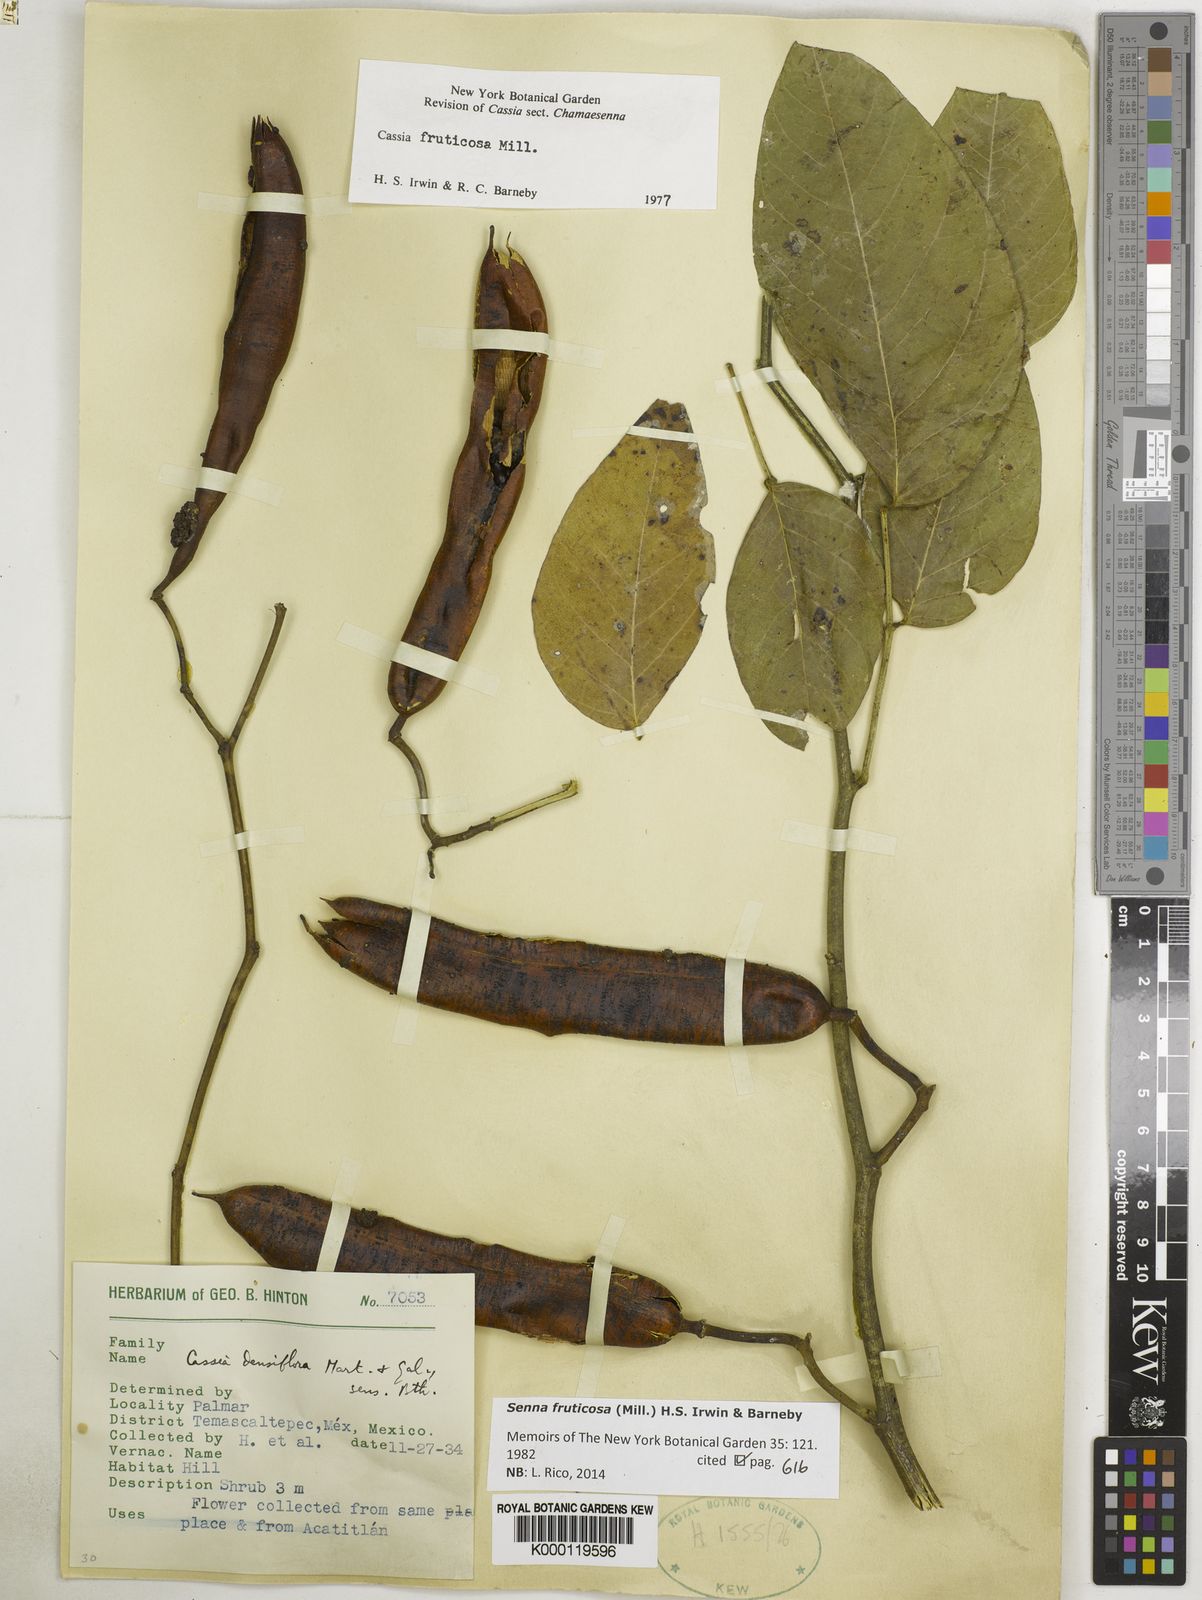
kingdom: Plantae
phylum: Tracheophyta
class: Magnoliopsida
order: Fabales
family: Fabaceae
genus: Senna
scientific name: Senna fruticosa
